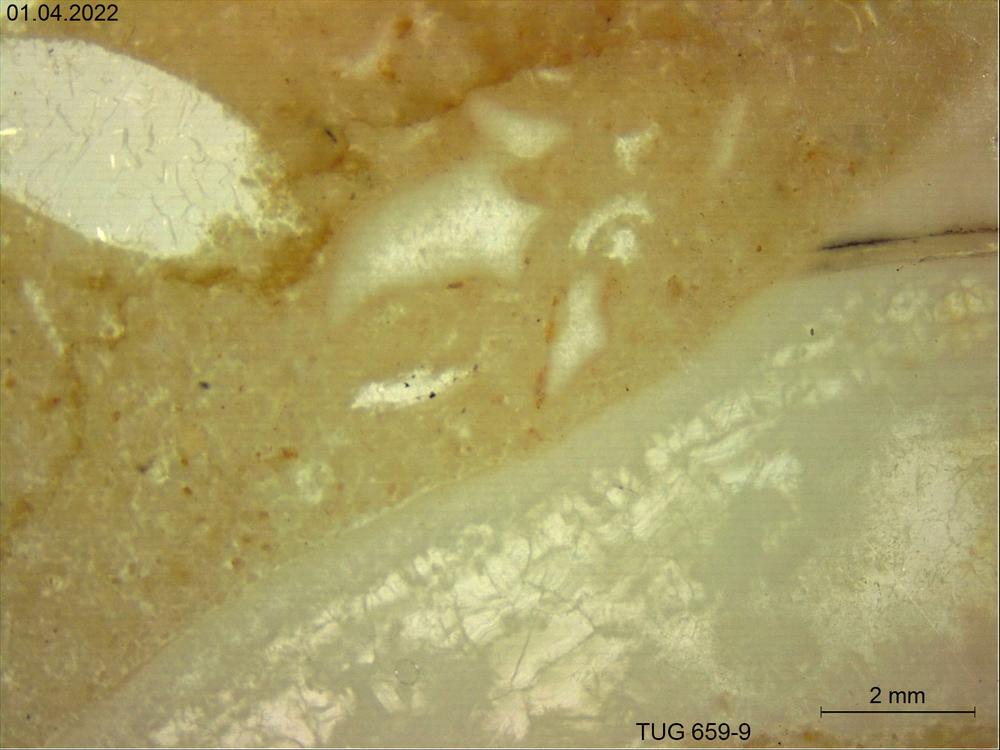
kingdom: Animalia
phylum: Porifera
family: Stromatoporidae
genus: Stromatopora
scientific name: Stromatopora
